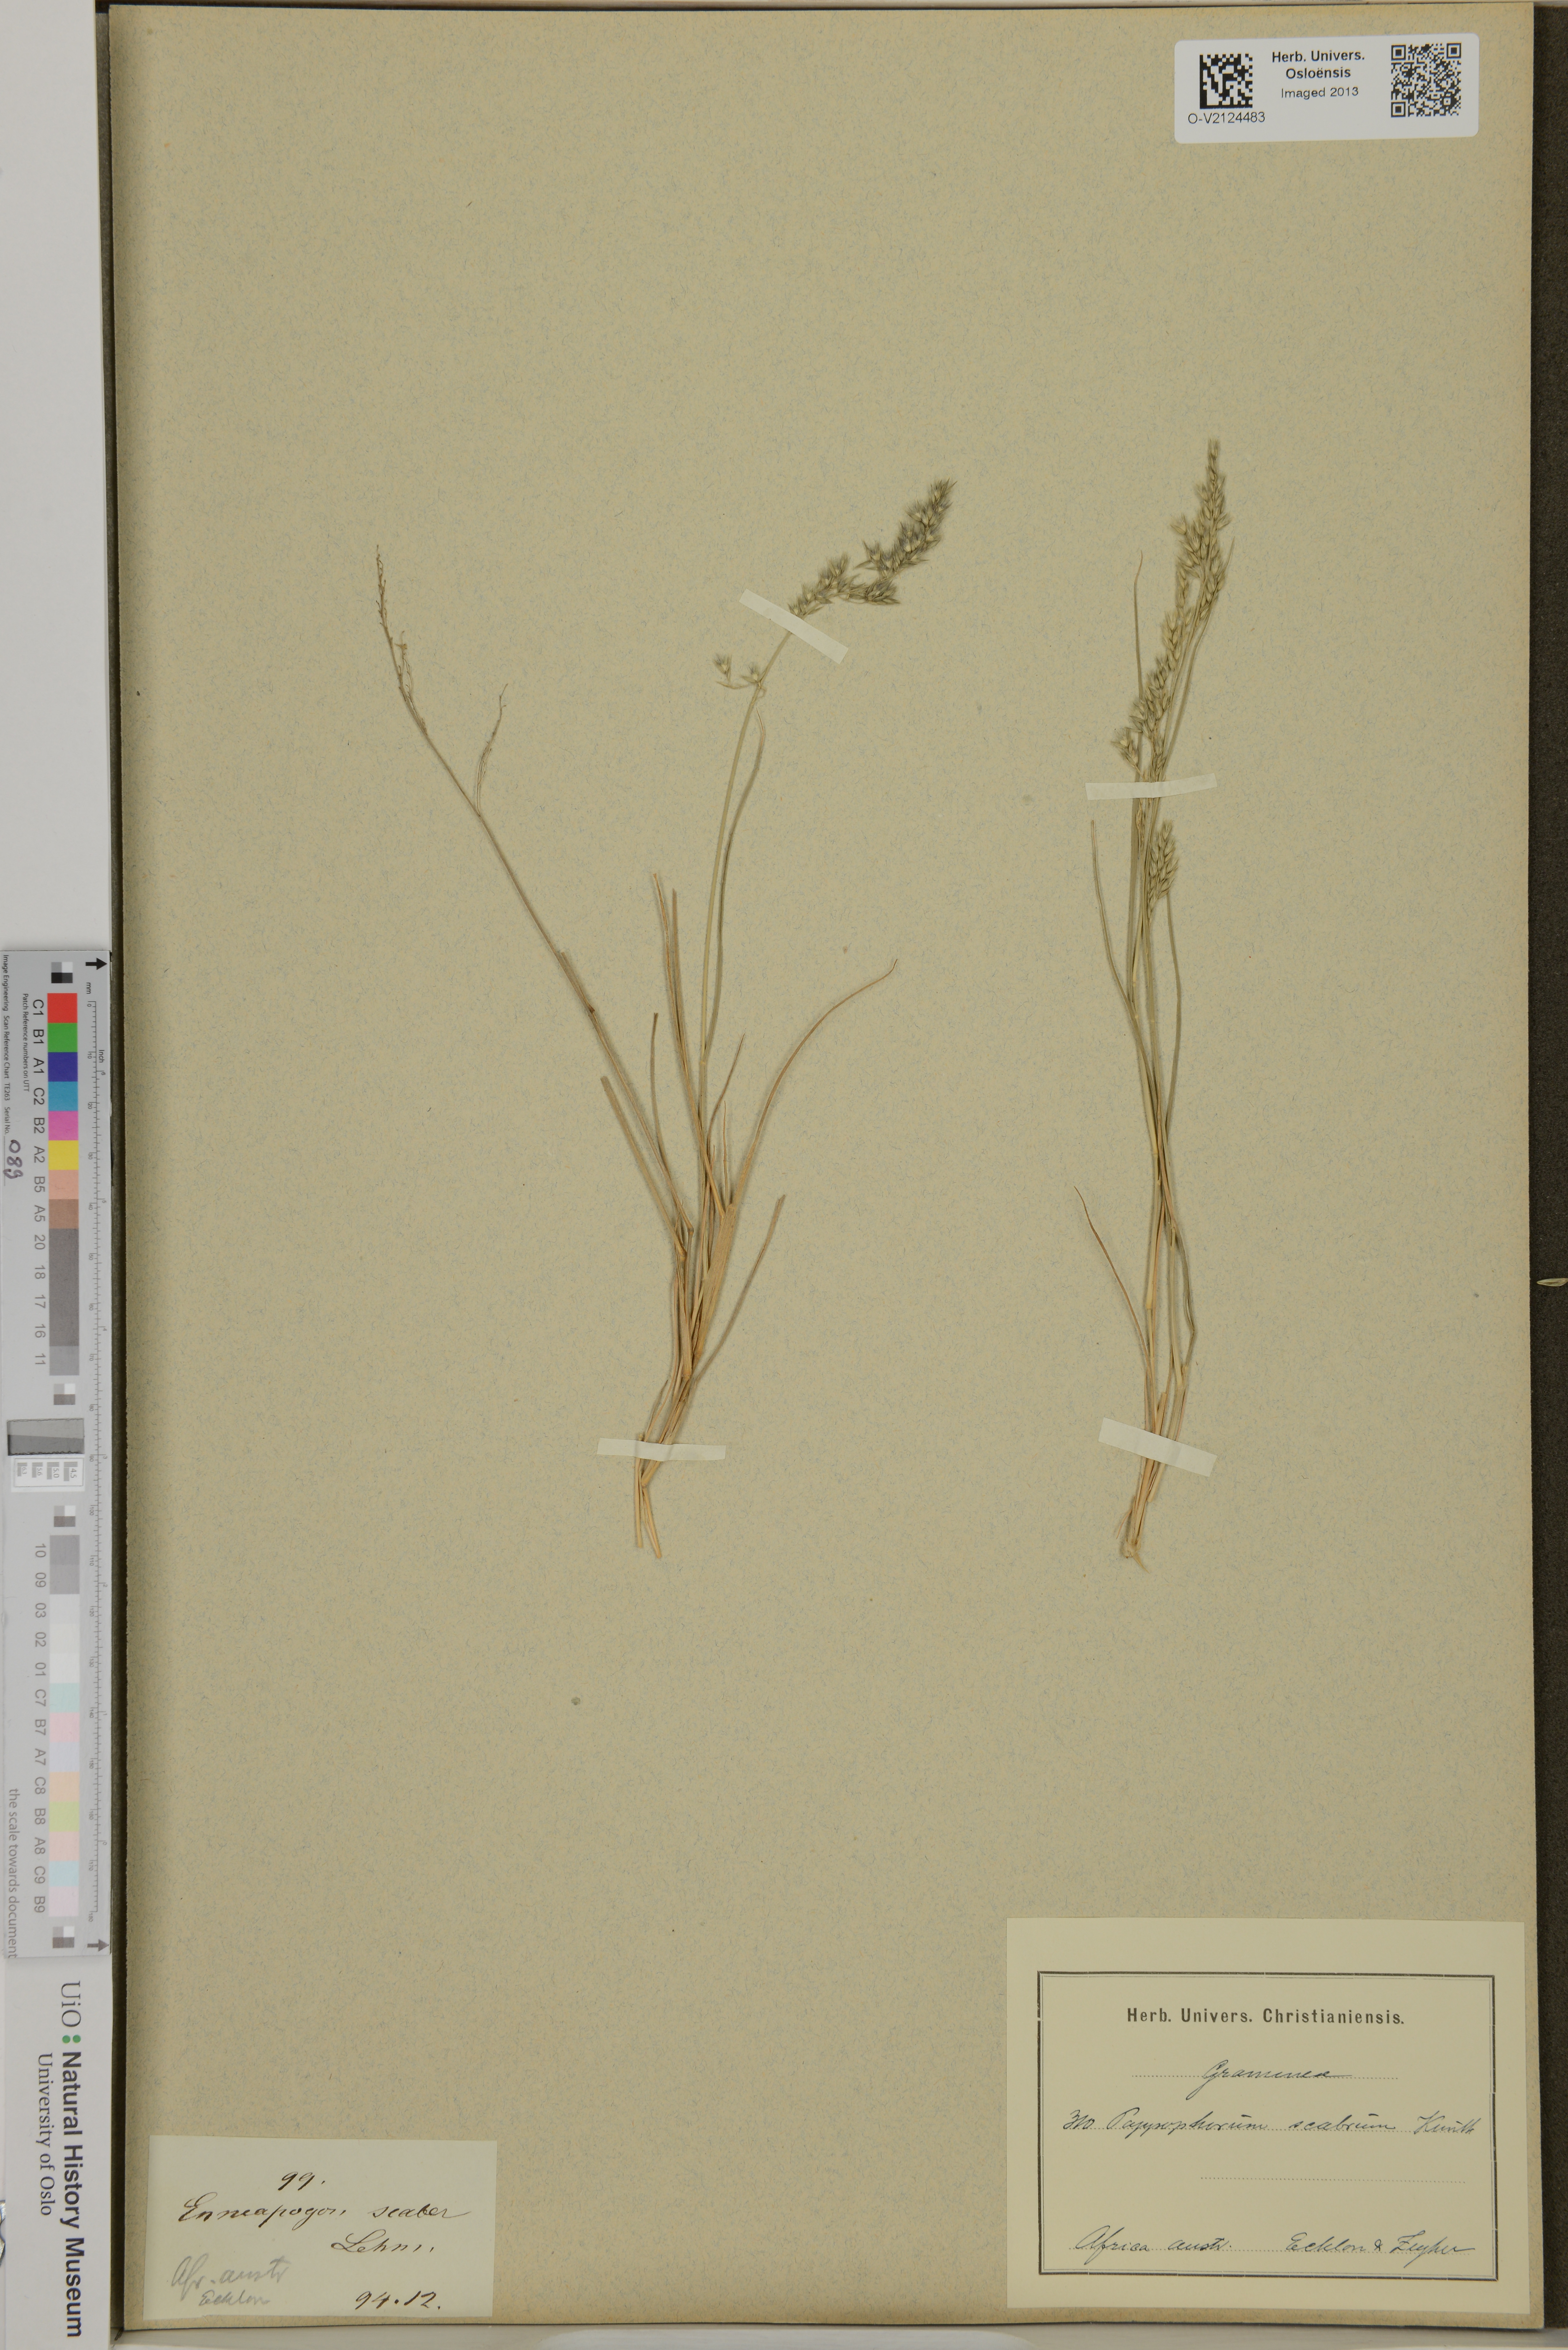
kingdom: Plantae
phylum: Tracheophyta
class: Liliopsida
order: Poales
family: Poaceae
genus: Enneapogon
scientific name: Enneapogon scaber
